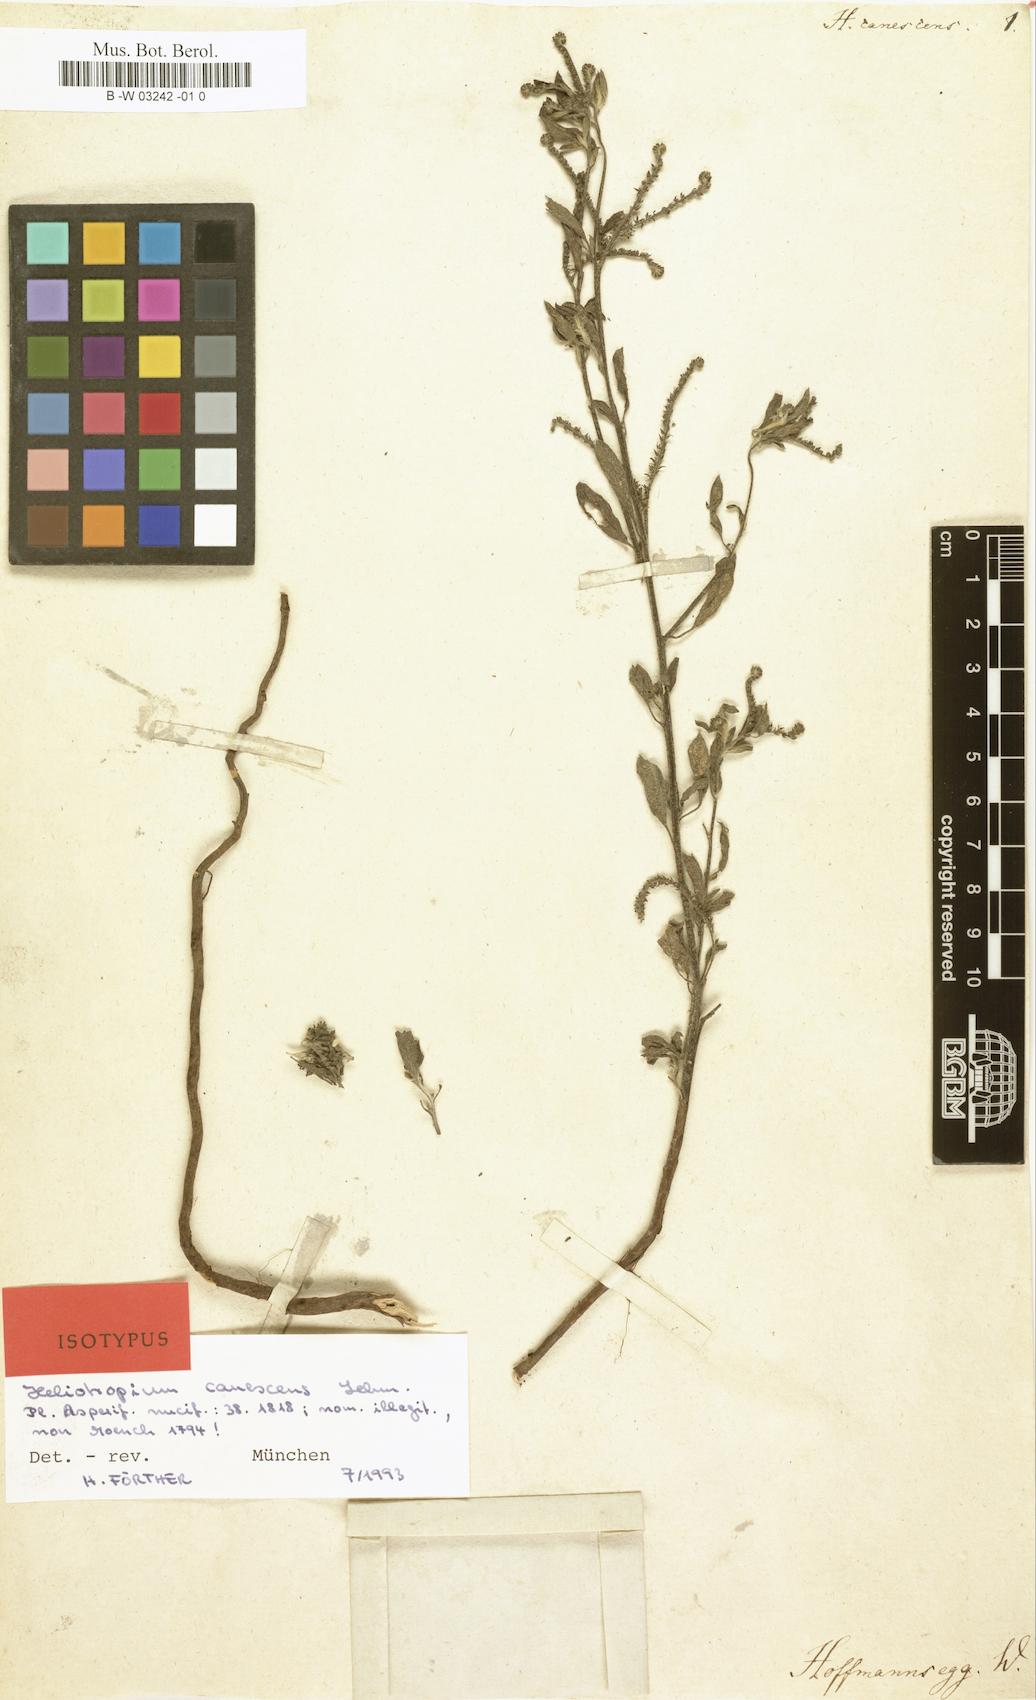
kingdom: Plantae
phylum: Tracheophyta
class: Magnoliopsida
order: Boraginales
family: Heliotropiaceae
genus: Euploca
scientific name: Euploca barbata
